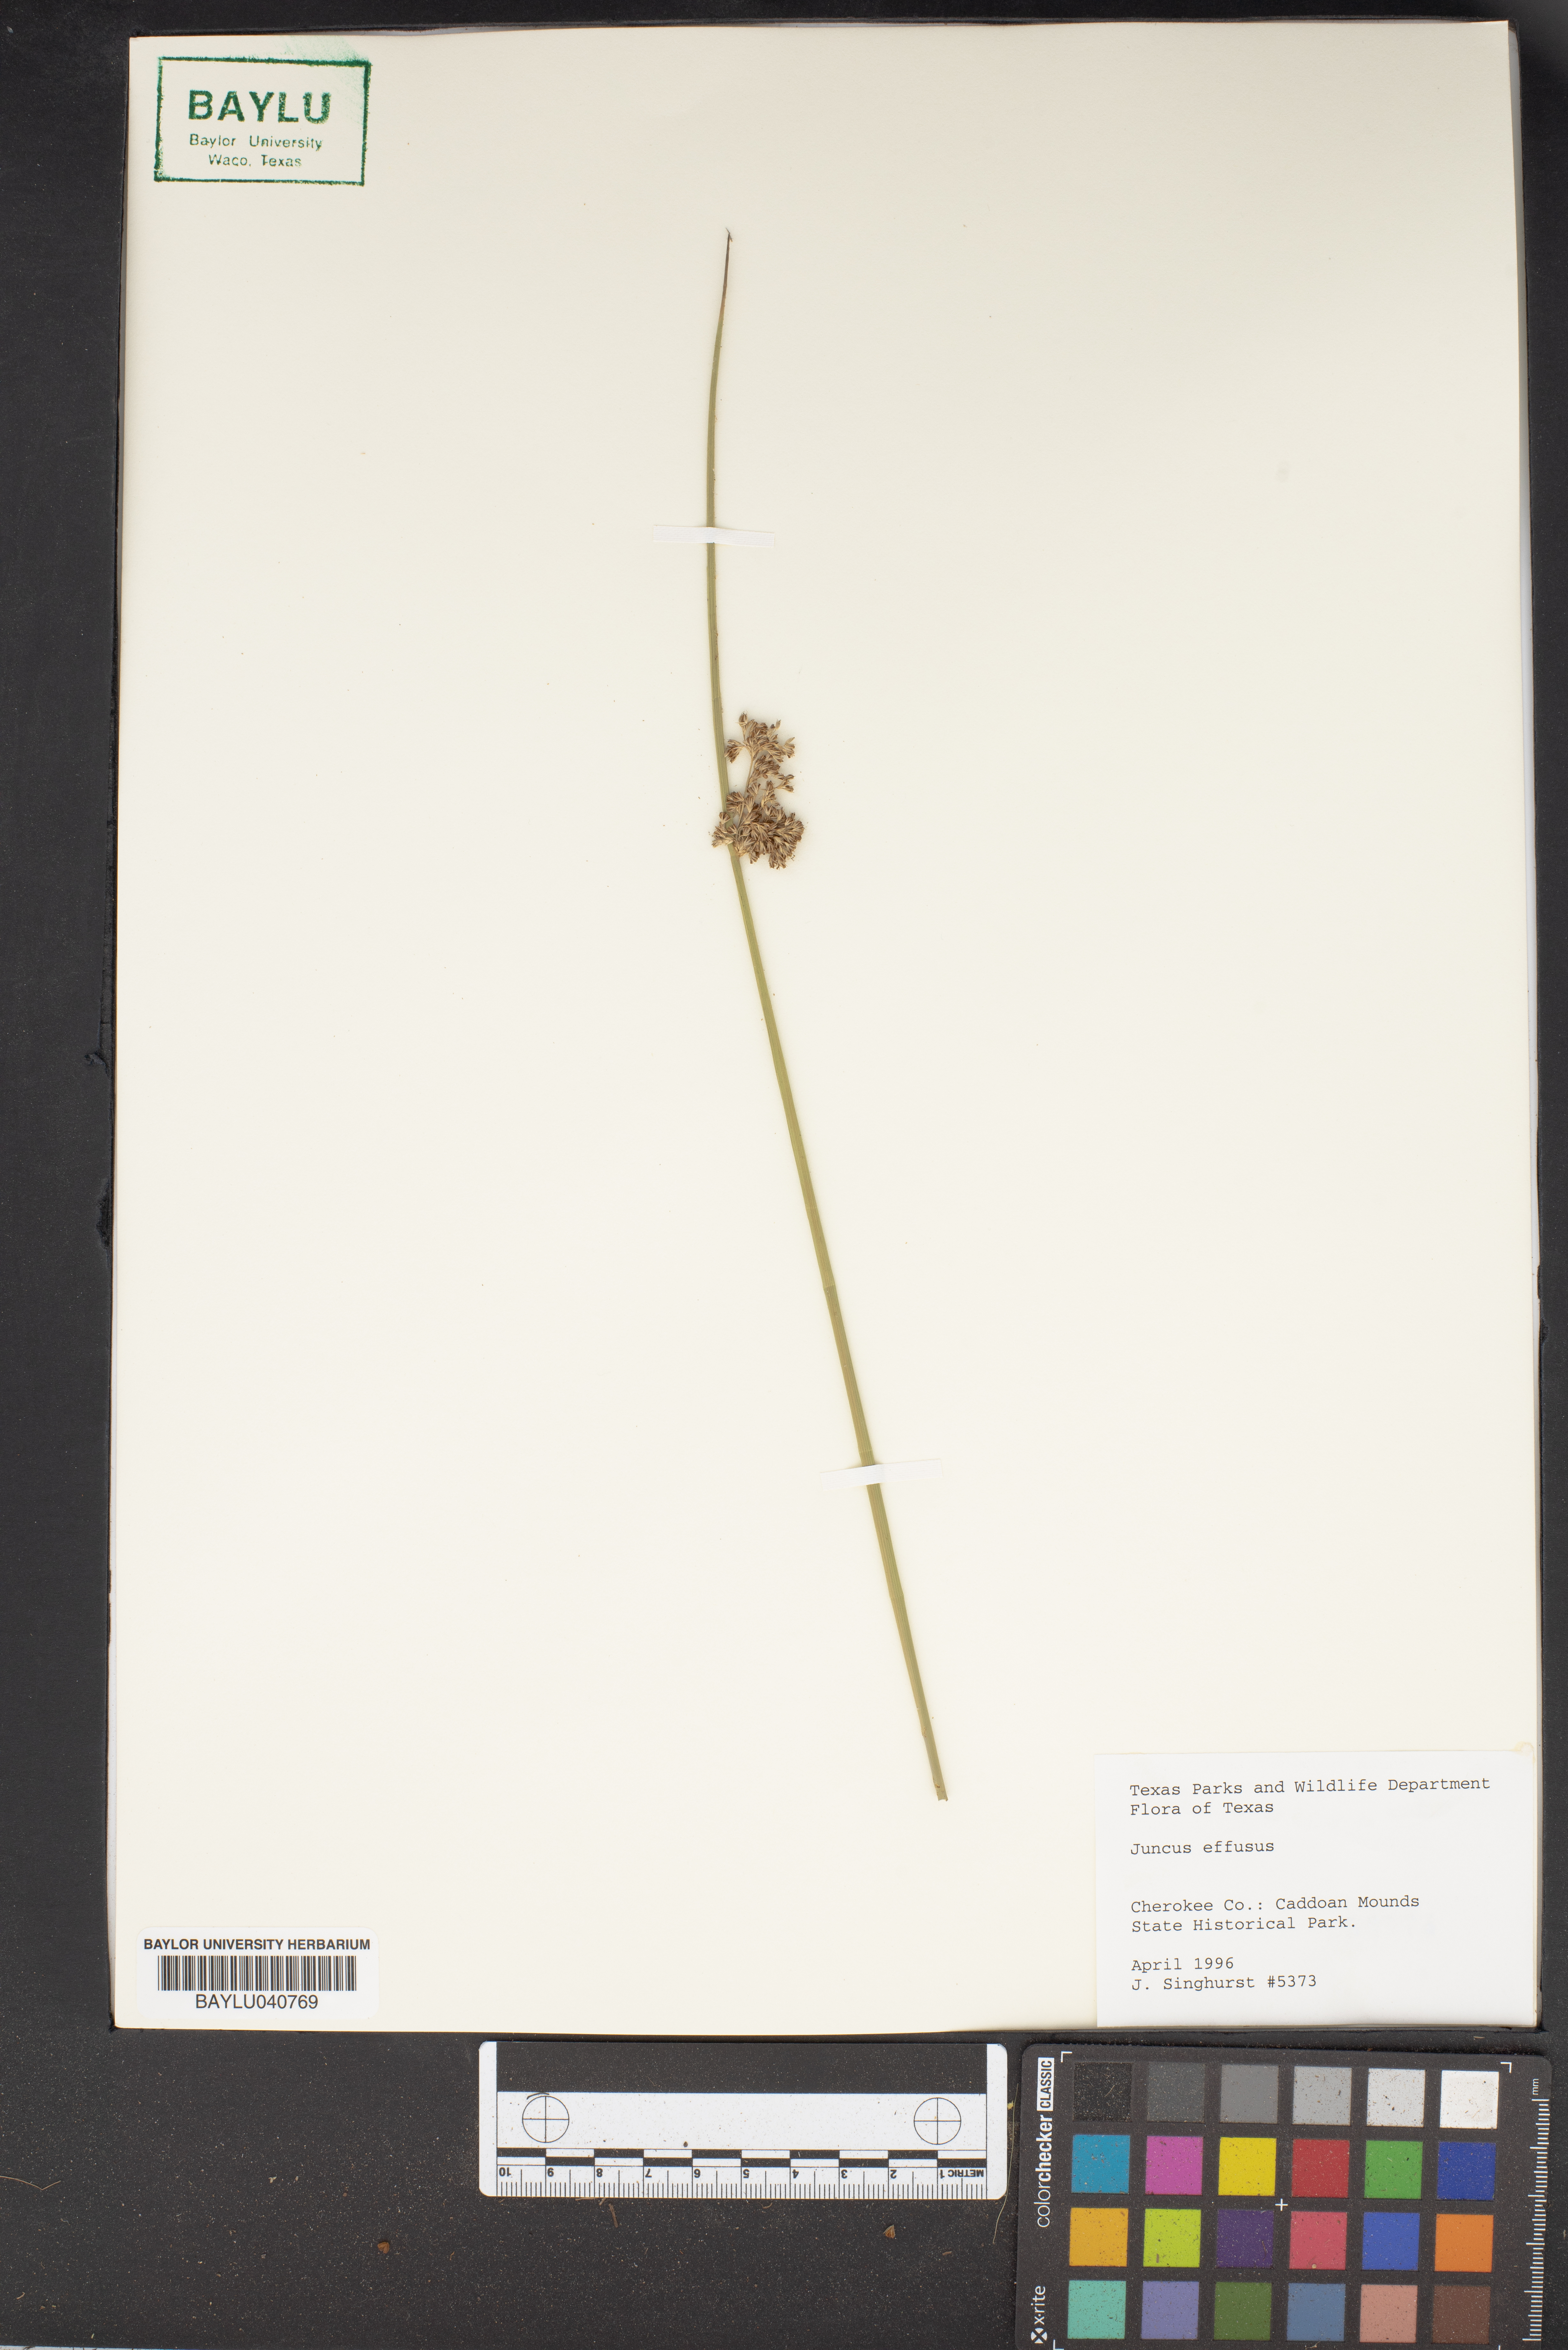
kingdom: Plantae
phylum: Tracheophyta
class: Liliopsida
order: Poales
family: Juncaceae
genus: Juncus
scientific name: Juncus effusus
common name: Soft rush
